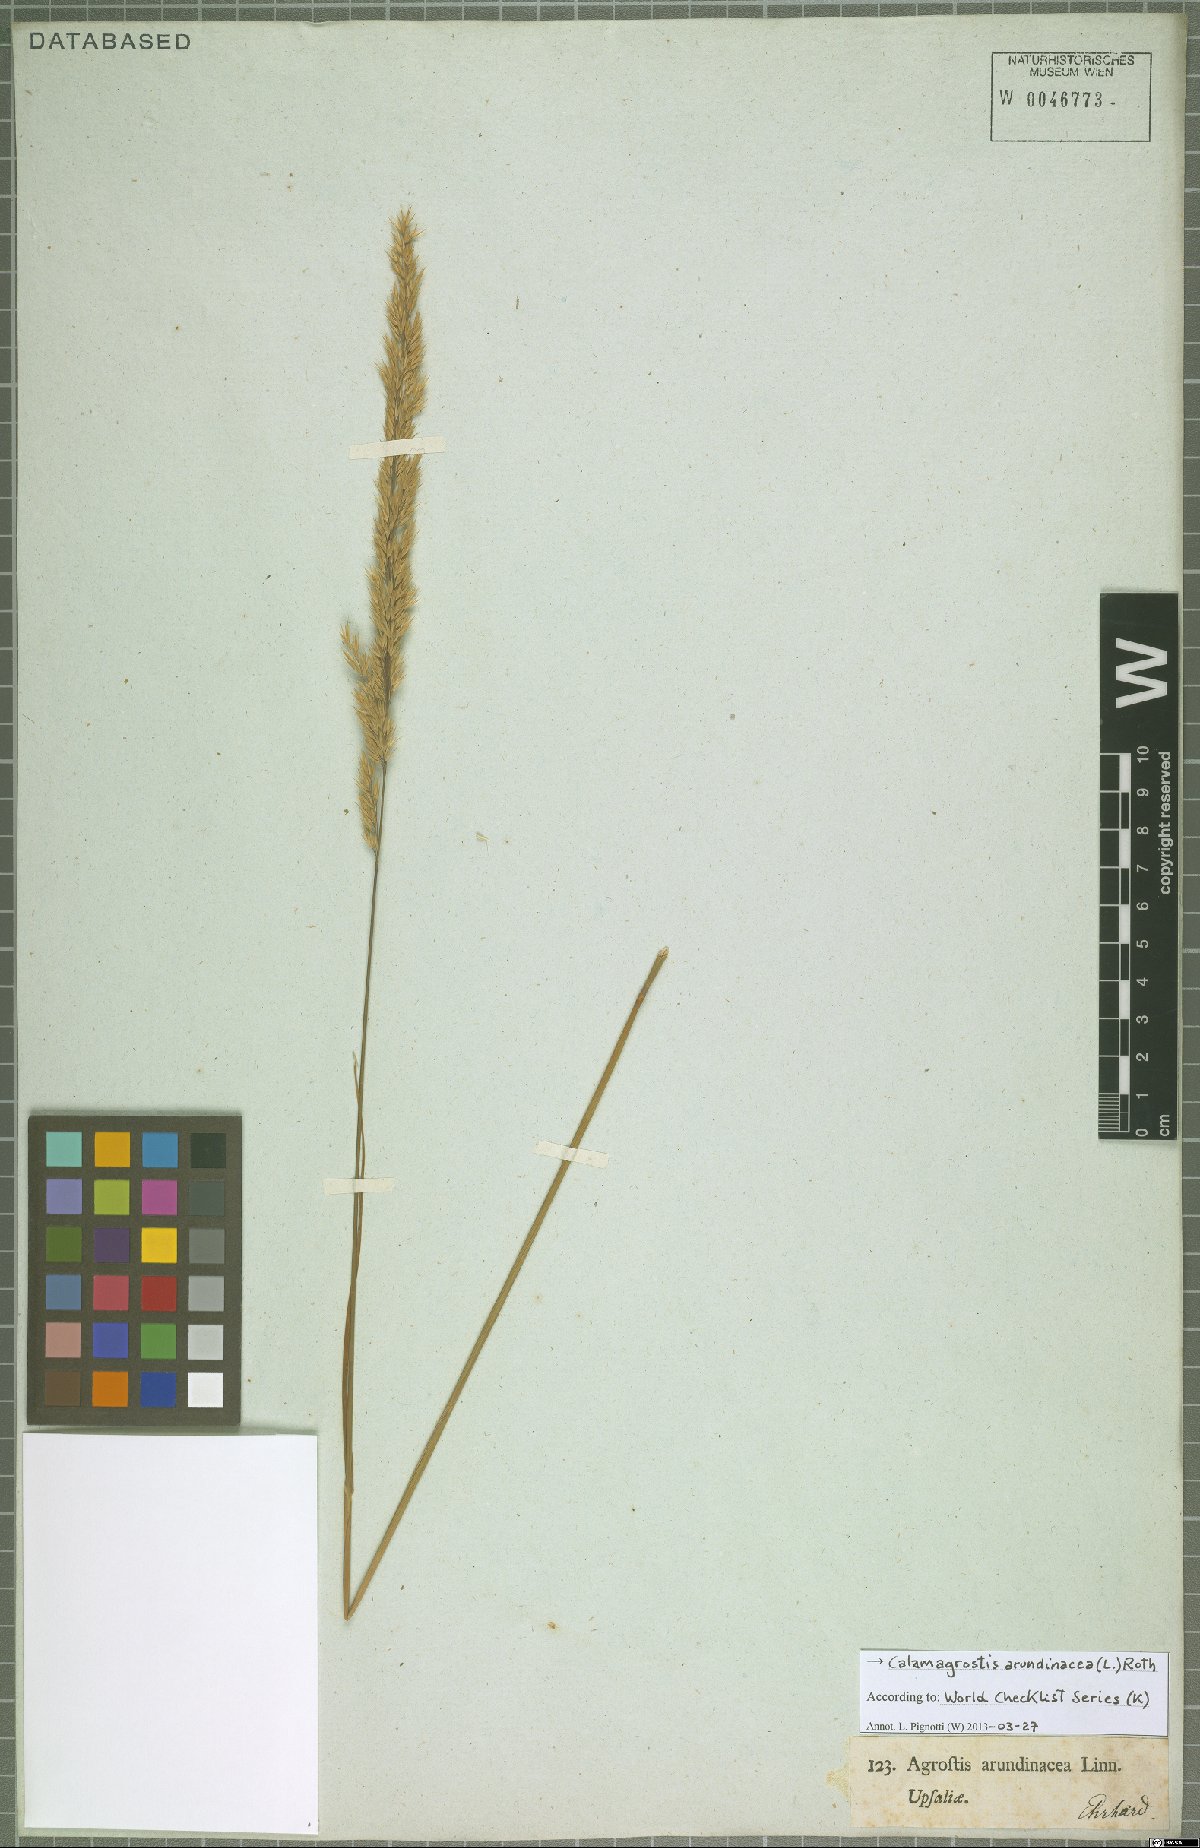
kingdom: Plantae
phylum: Tracheophyta
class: Liliopsida
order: Poales
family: Poaceae
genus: Calamagrostis
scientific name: Calamagrostis arundinacea
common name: Metskastik
